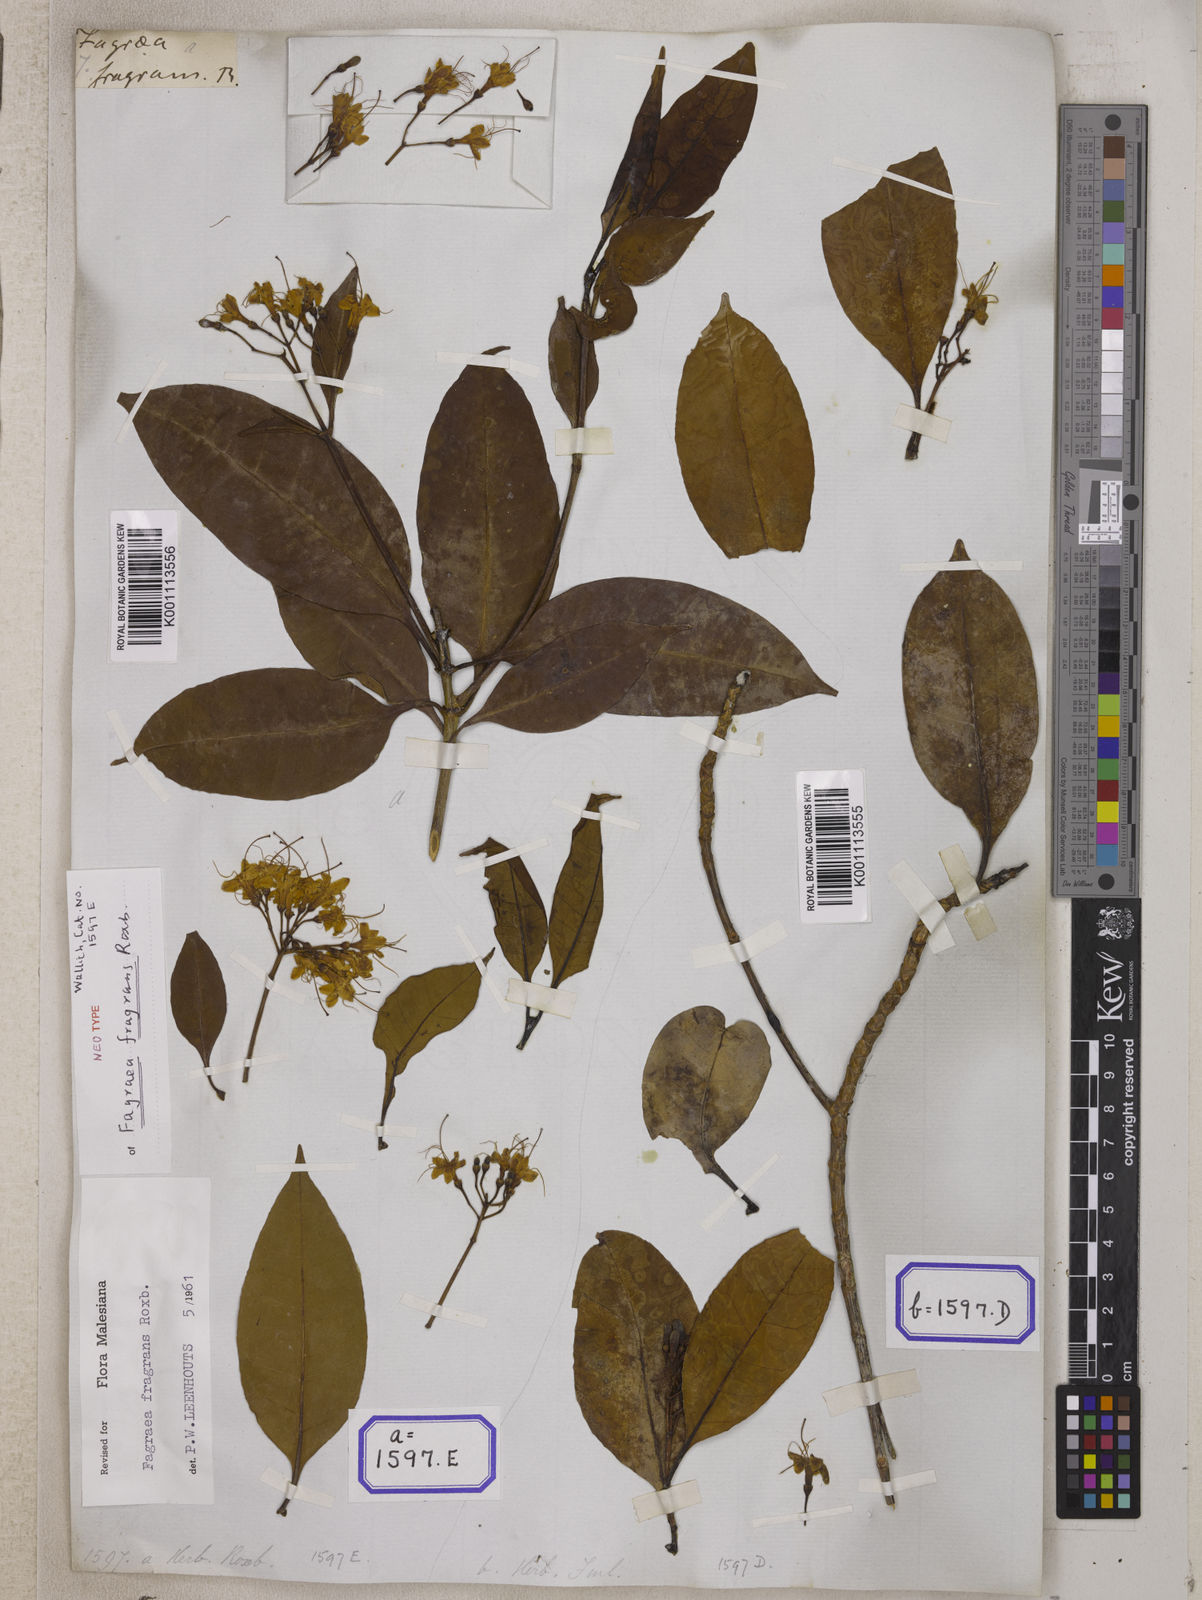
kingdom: Plantae
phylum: Tracheophyta
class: Magnoliopsida
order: Gentianales
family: Gentianaceae
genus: Cyrtophyllum
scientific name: Cyrtophyllum fragrans
